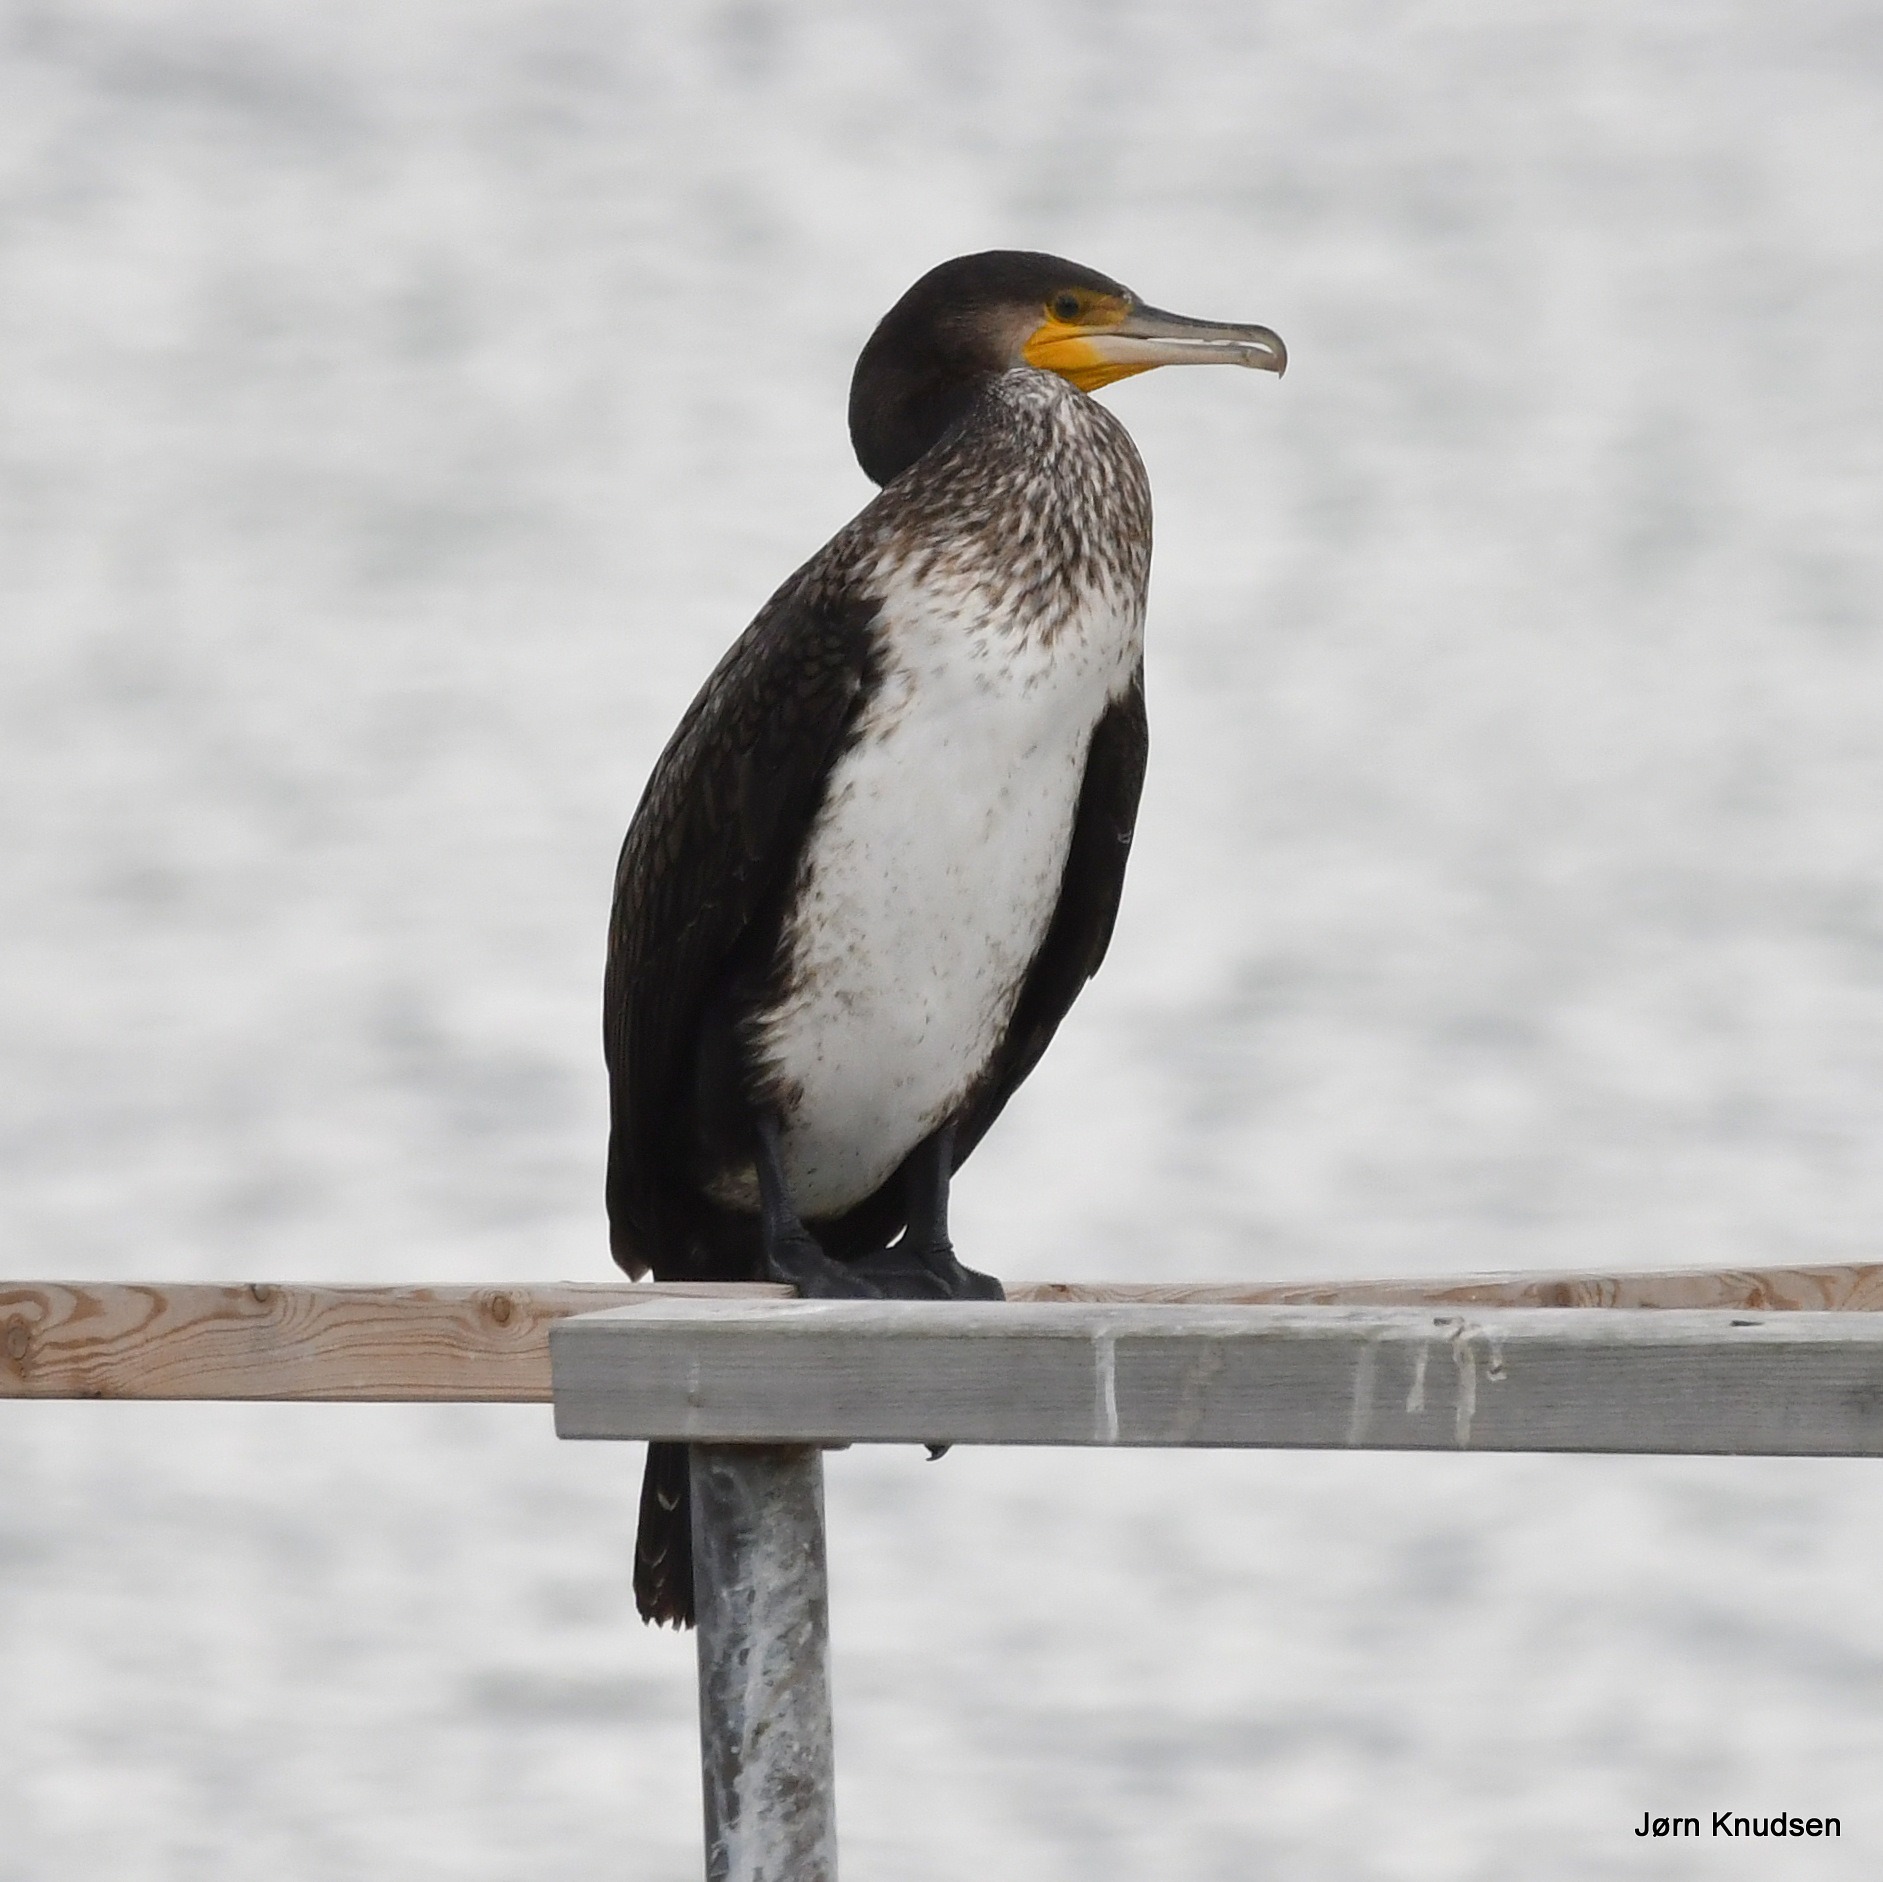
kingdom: Animalia
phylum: Chordata
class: Aves
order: Suliformes
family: Phalacrocoracidae
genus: Phalacrocorax
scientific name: Phalacrocorax carbo
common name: Mellemskarv
